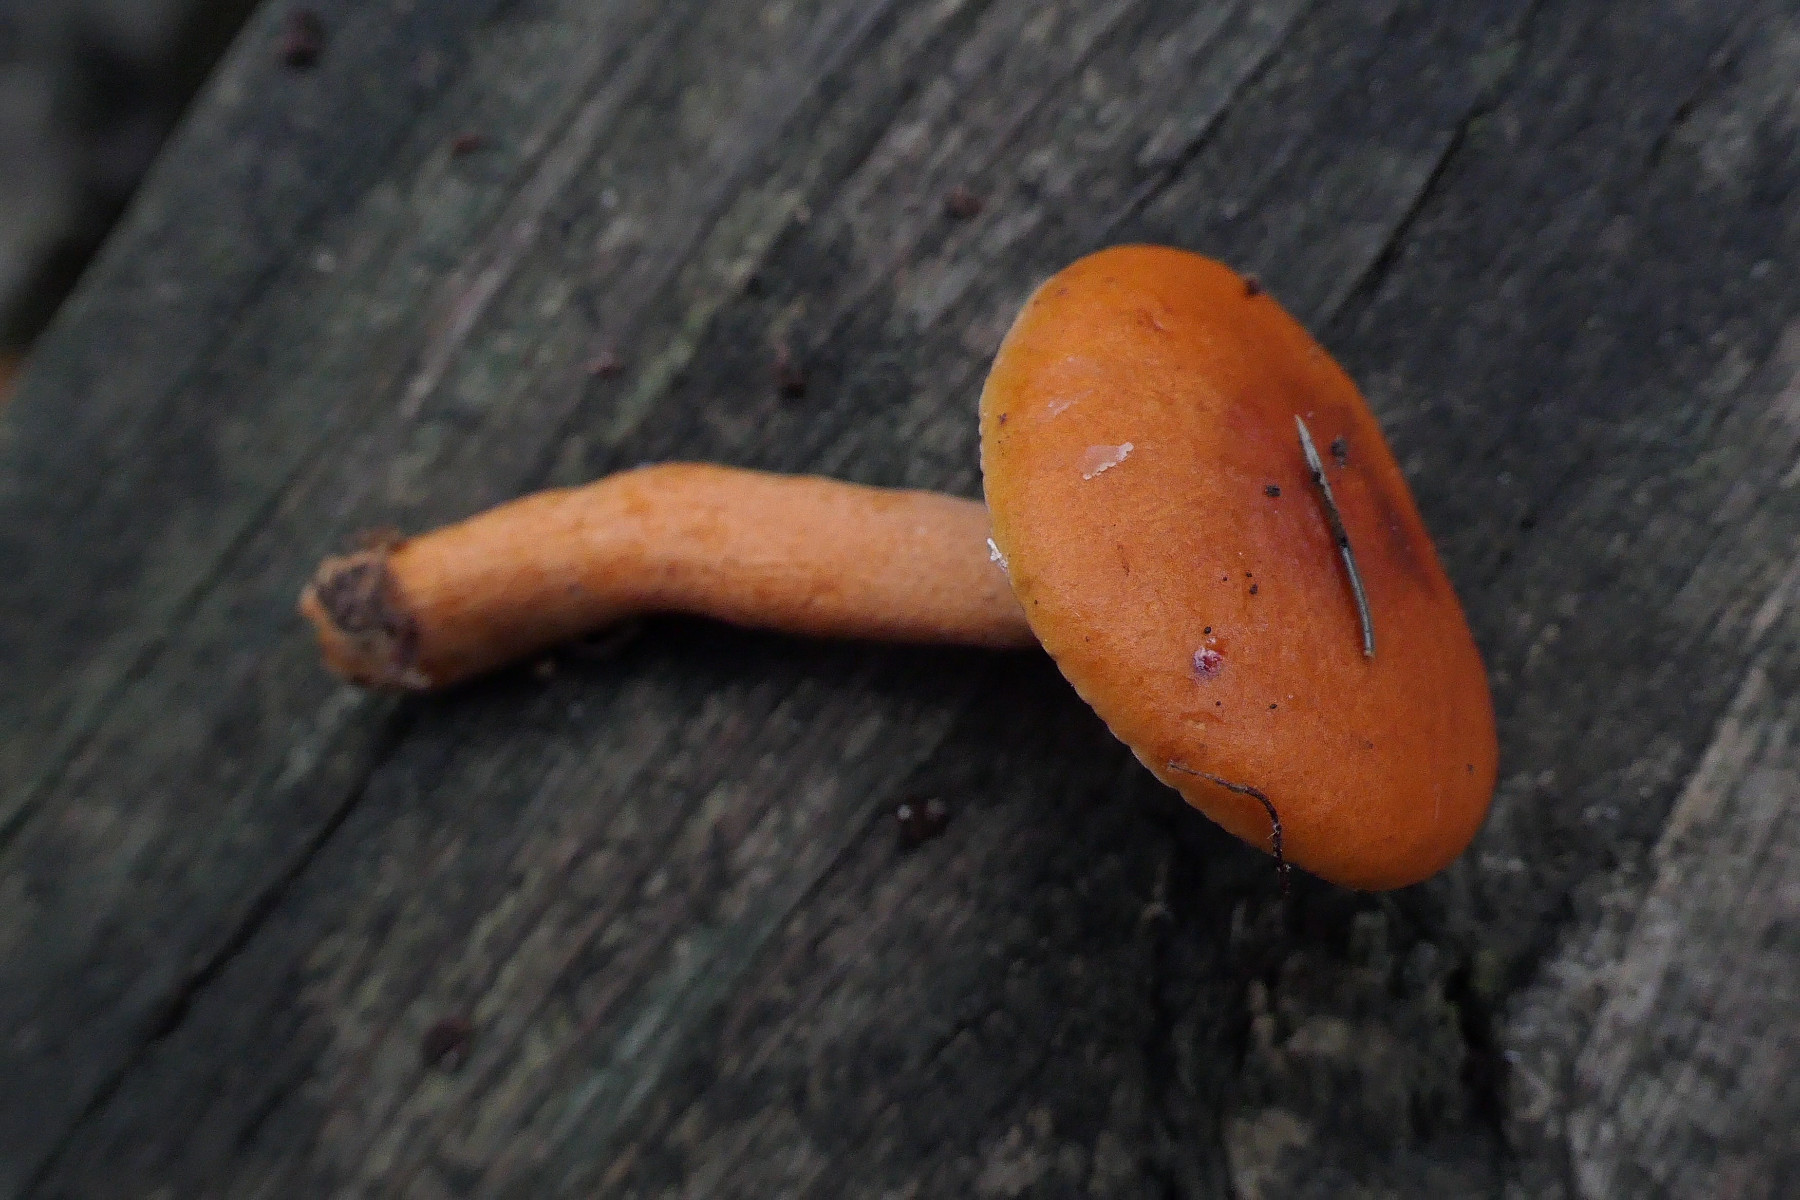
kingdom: Fungi
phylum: Basidiomycota
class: Agaricomycetes
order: Russulales
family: Russulaceae
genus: Lactarius
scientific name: Lactarius aurantiacus
